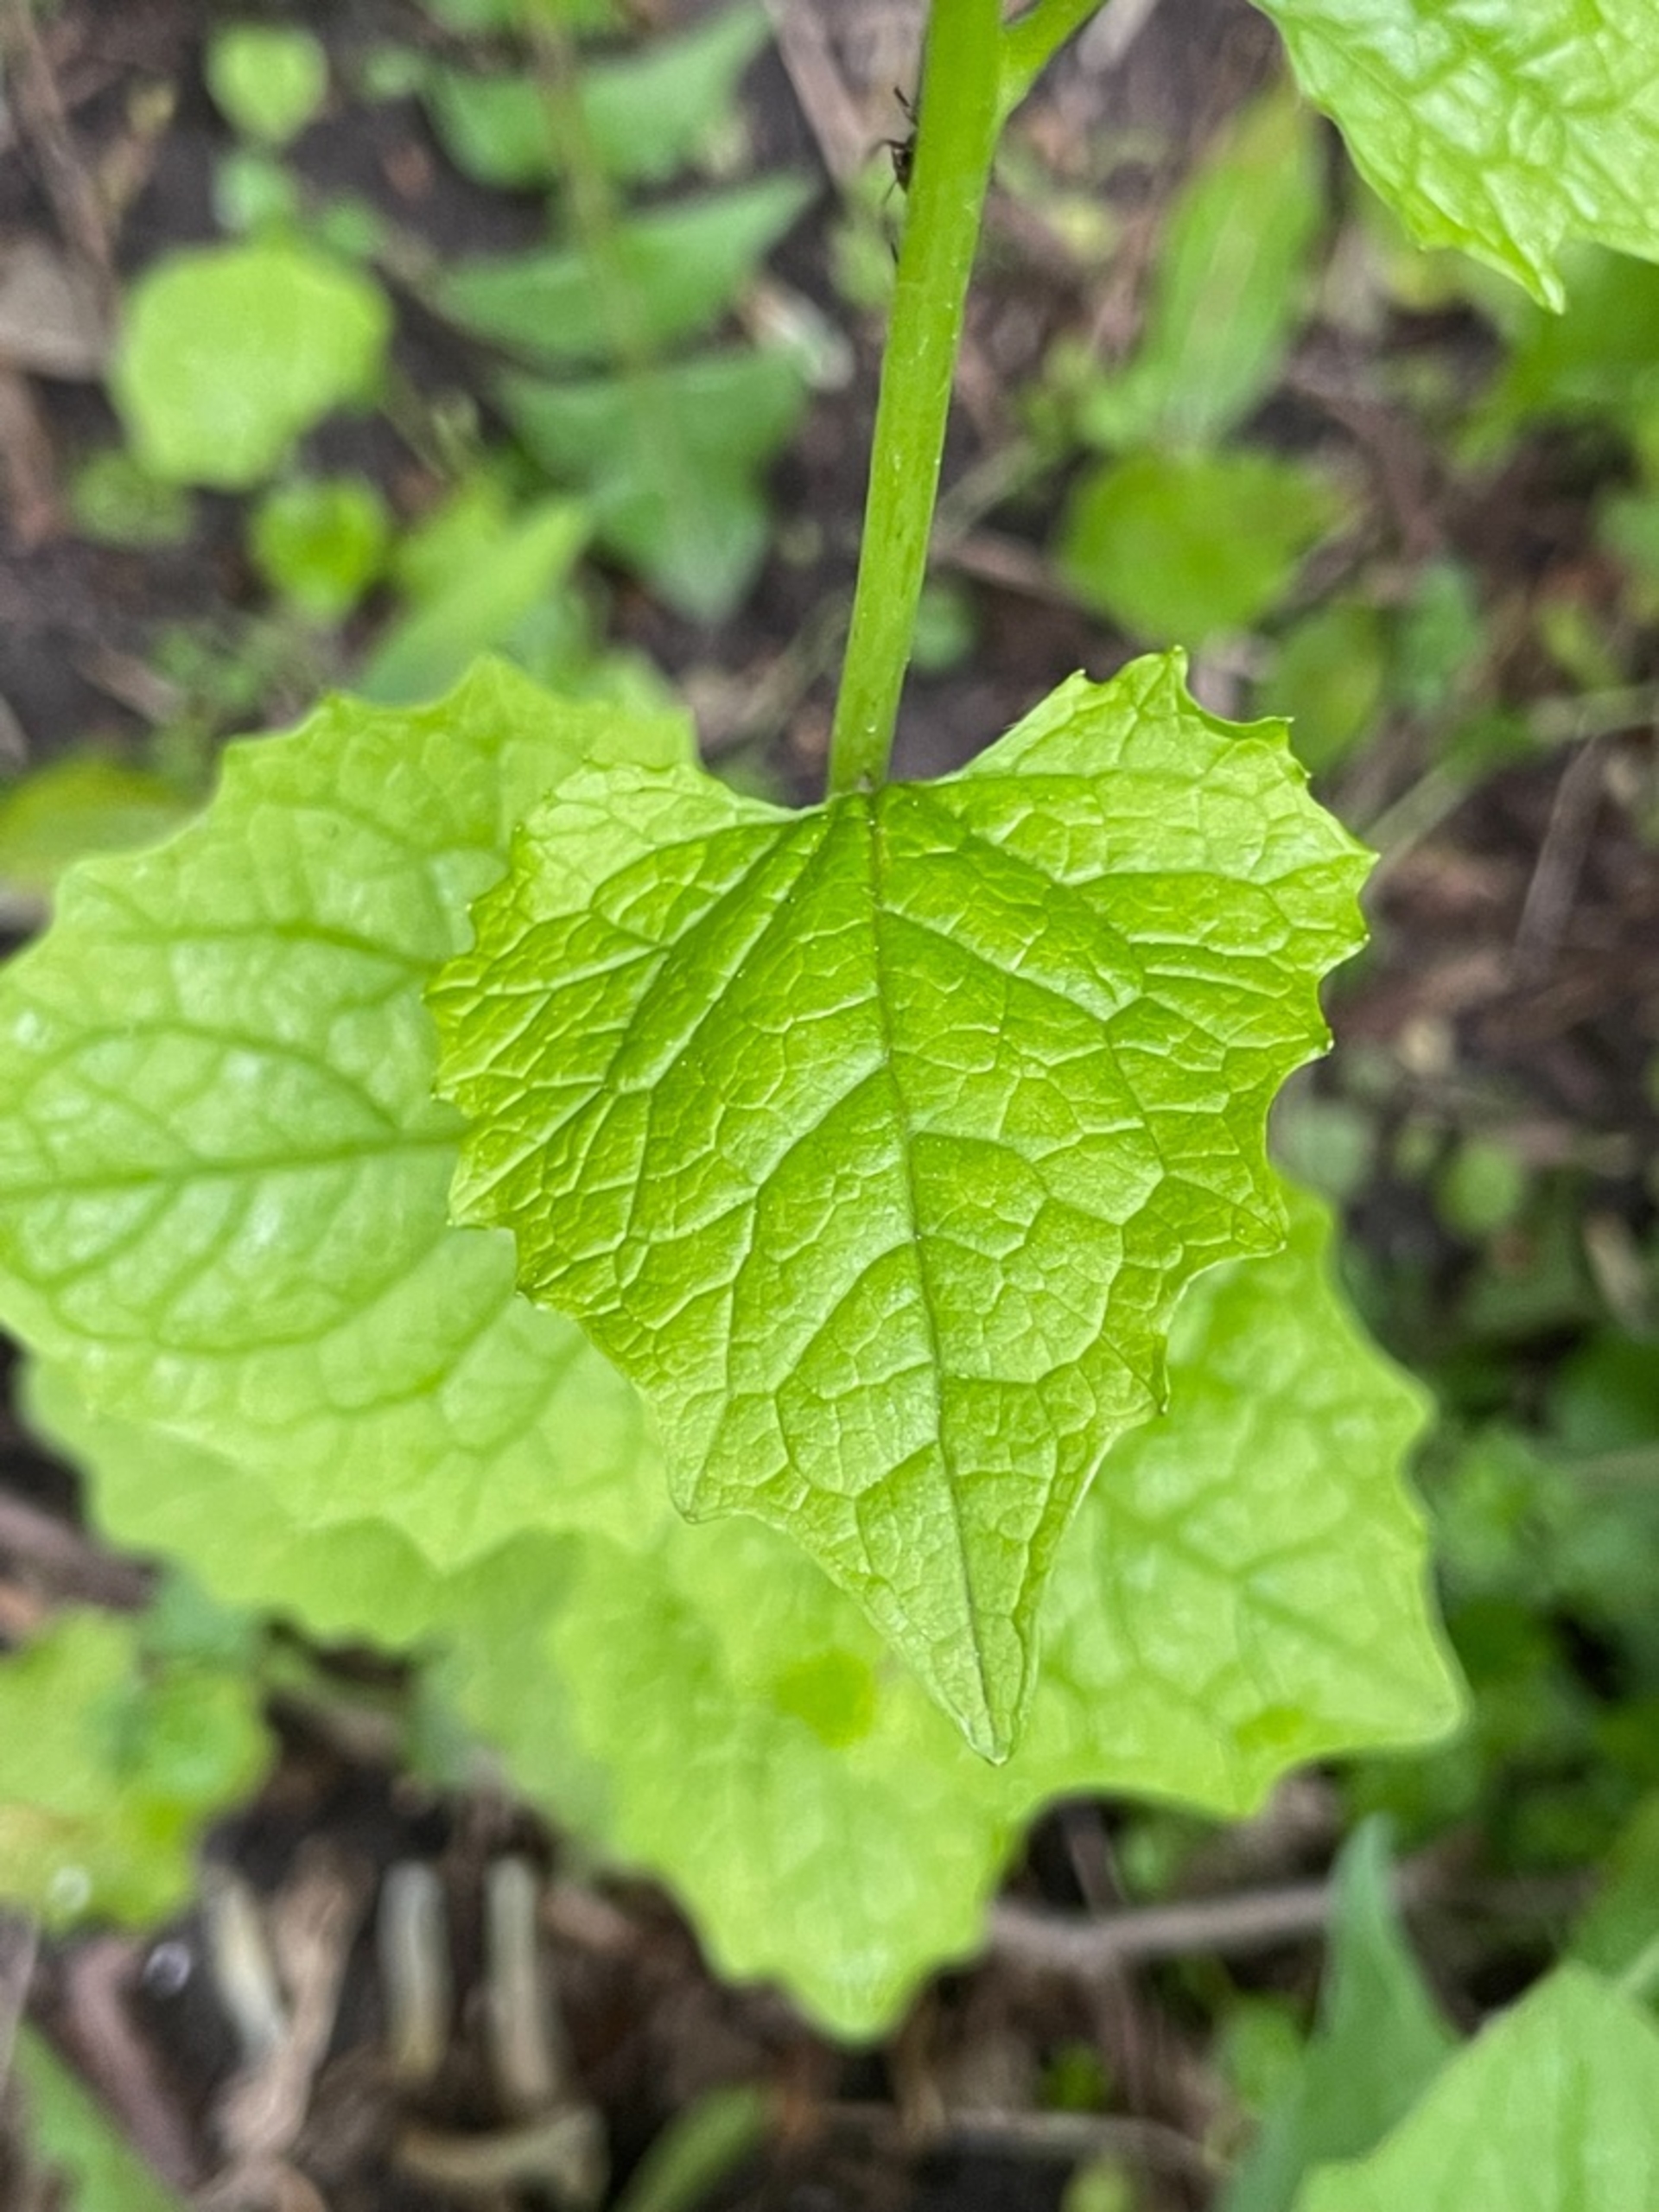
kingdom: Plantae
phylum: Tracheophyta
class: Magnoliopsida
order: Brassicales
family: Brassicaceae
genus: Alliaria
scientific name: Alliaria petiolata
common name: Løgkarse
